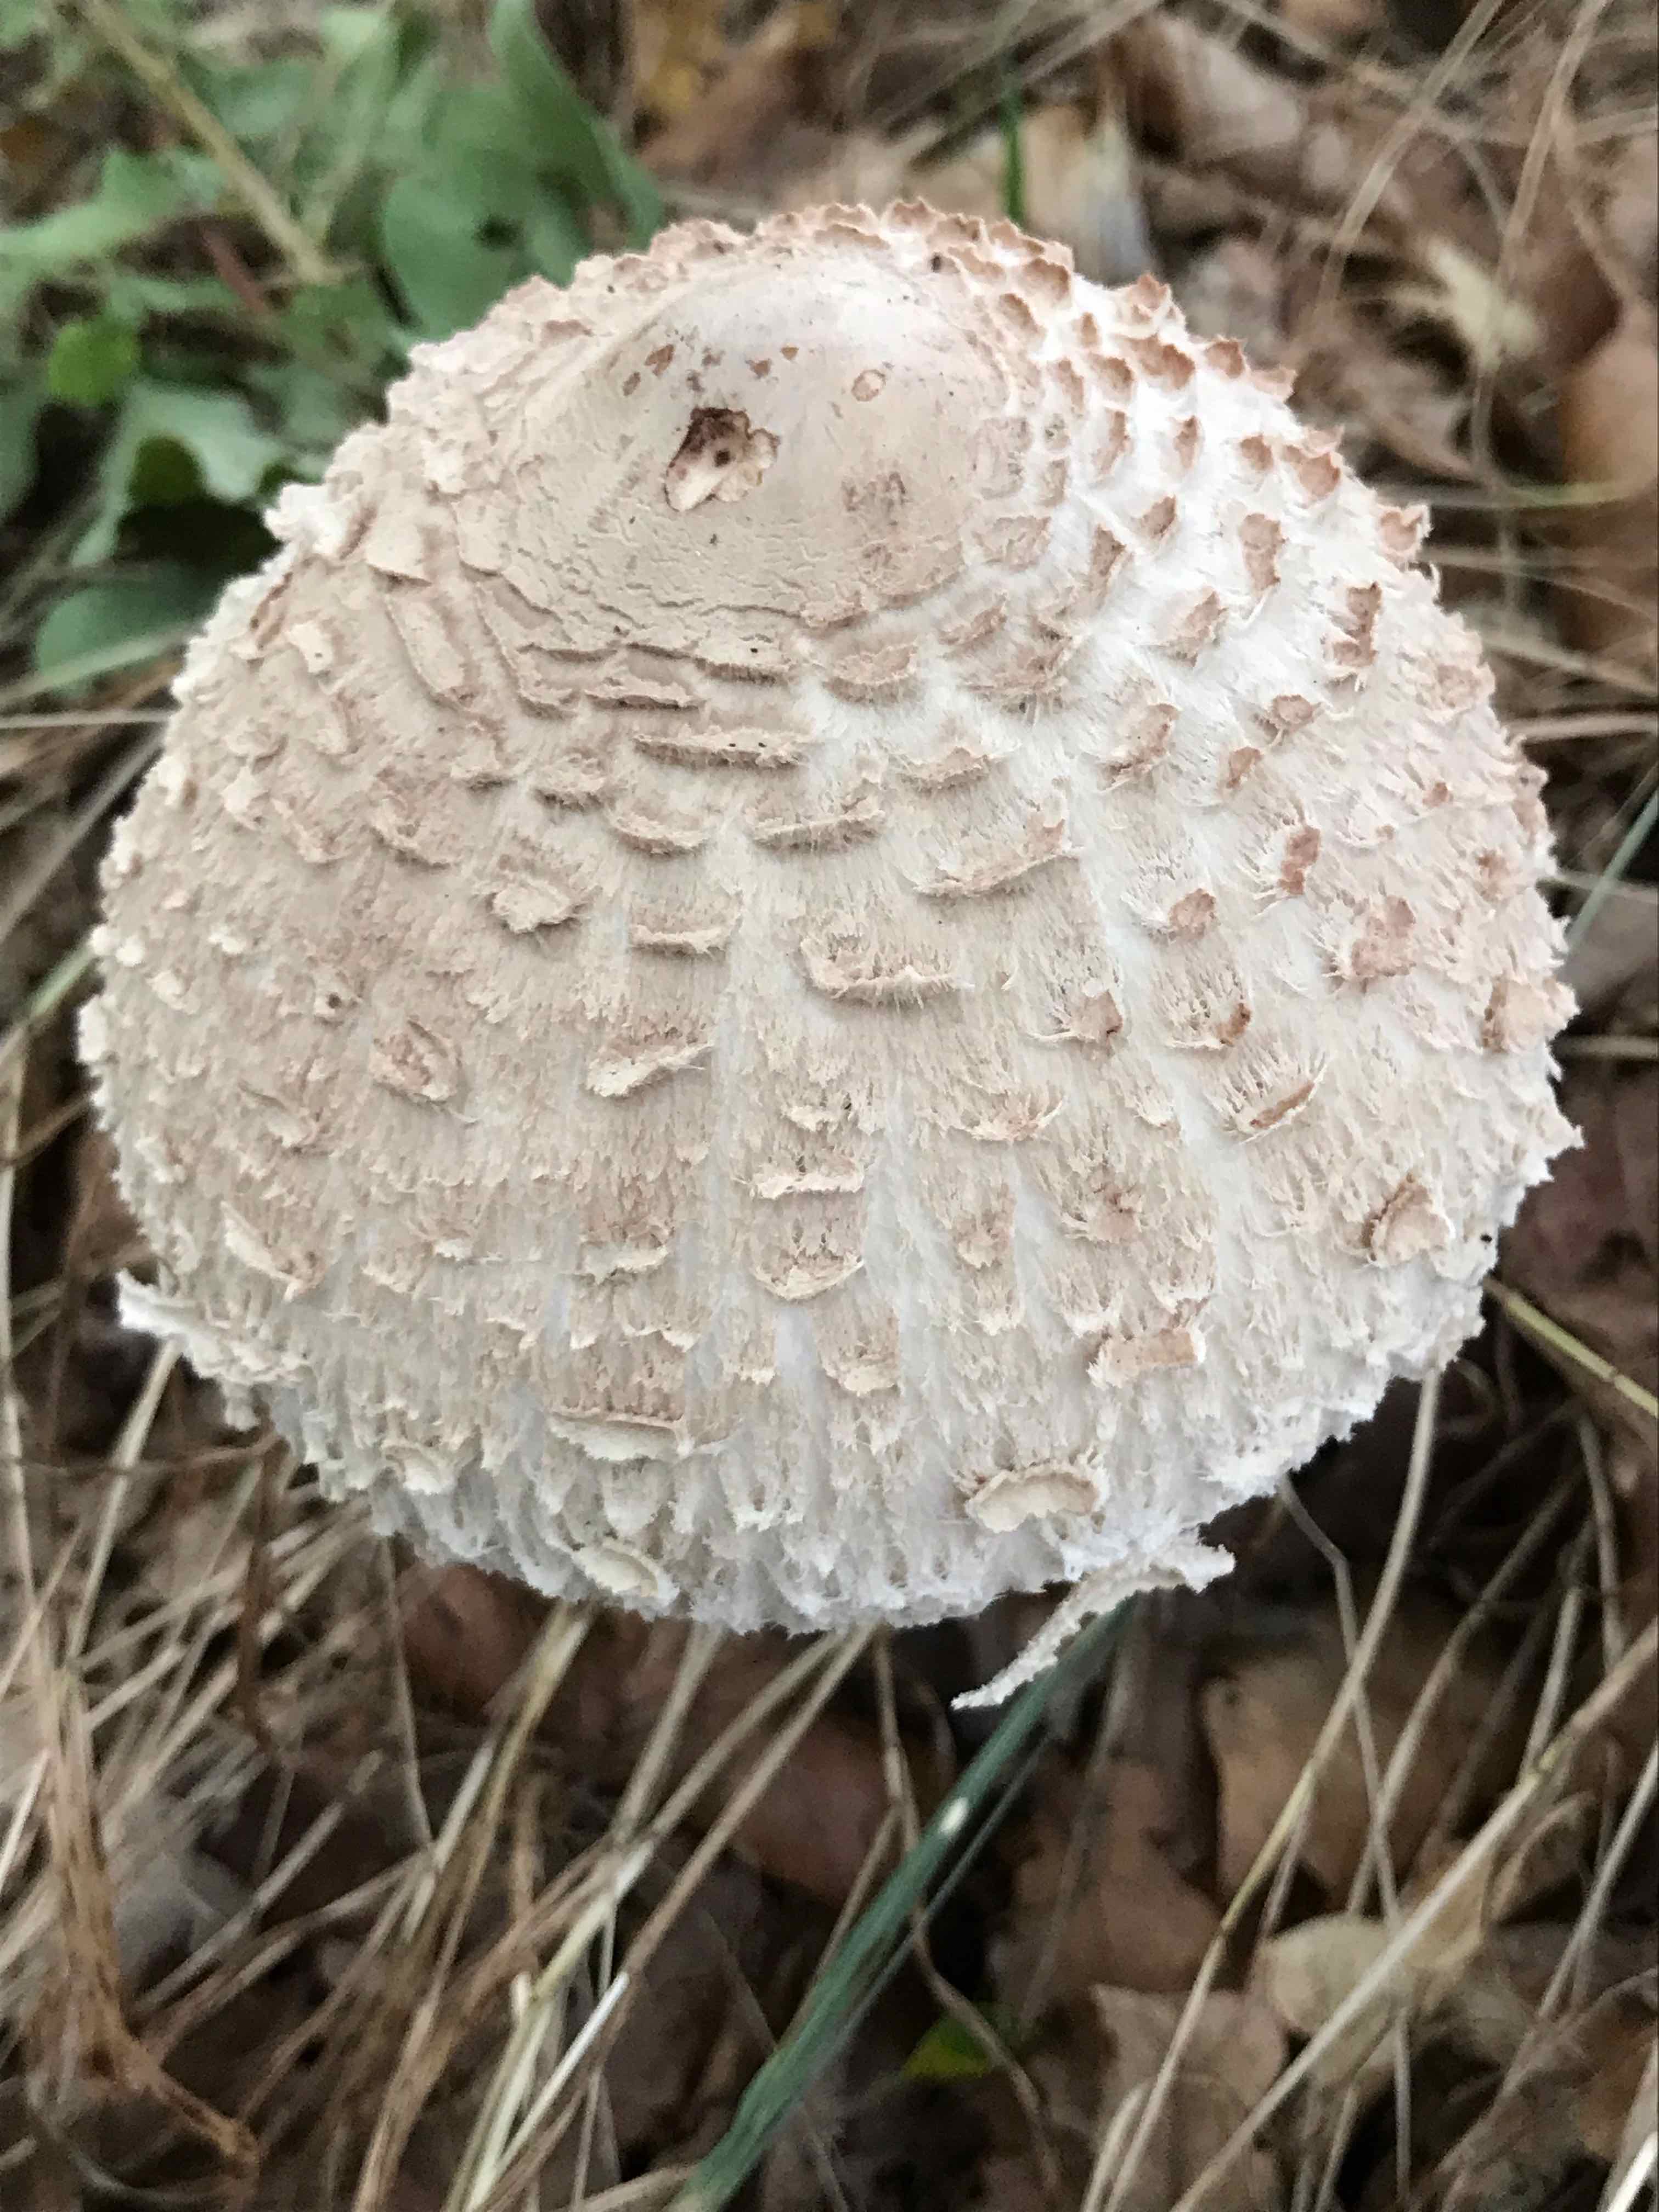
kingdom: Fungi
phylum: Basidiomycota
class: Agaricomycetes
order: Agaricales
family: Agaricaceae
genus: Macrolepiota
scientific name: Macrolepiota
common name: kæmpeparasolhat
